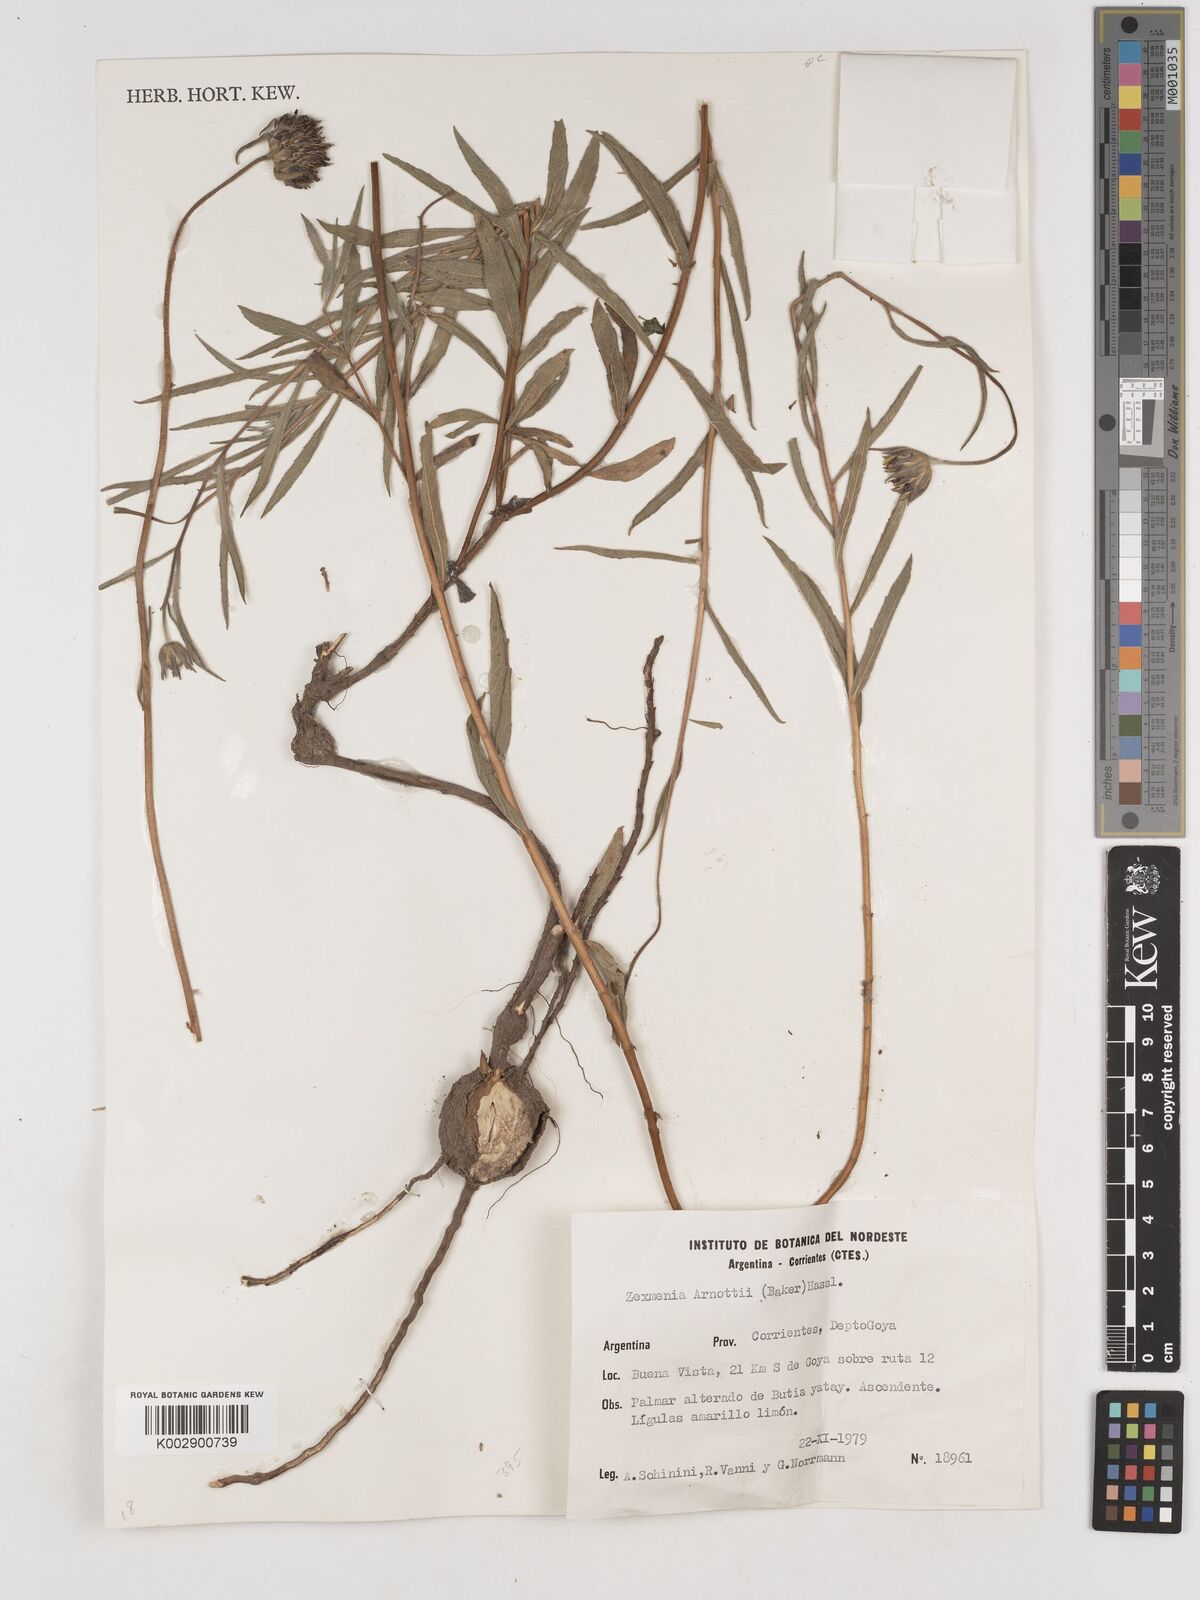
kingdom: Plantae
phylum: Tracheophyta
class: Magnoliopsida
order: Asterales
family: Asteraceae
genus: Dimerostemma
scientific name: Dimerostemma arnottii
